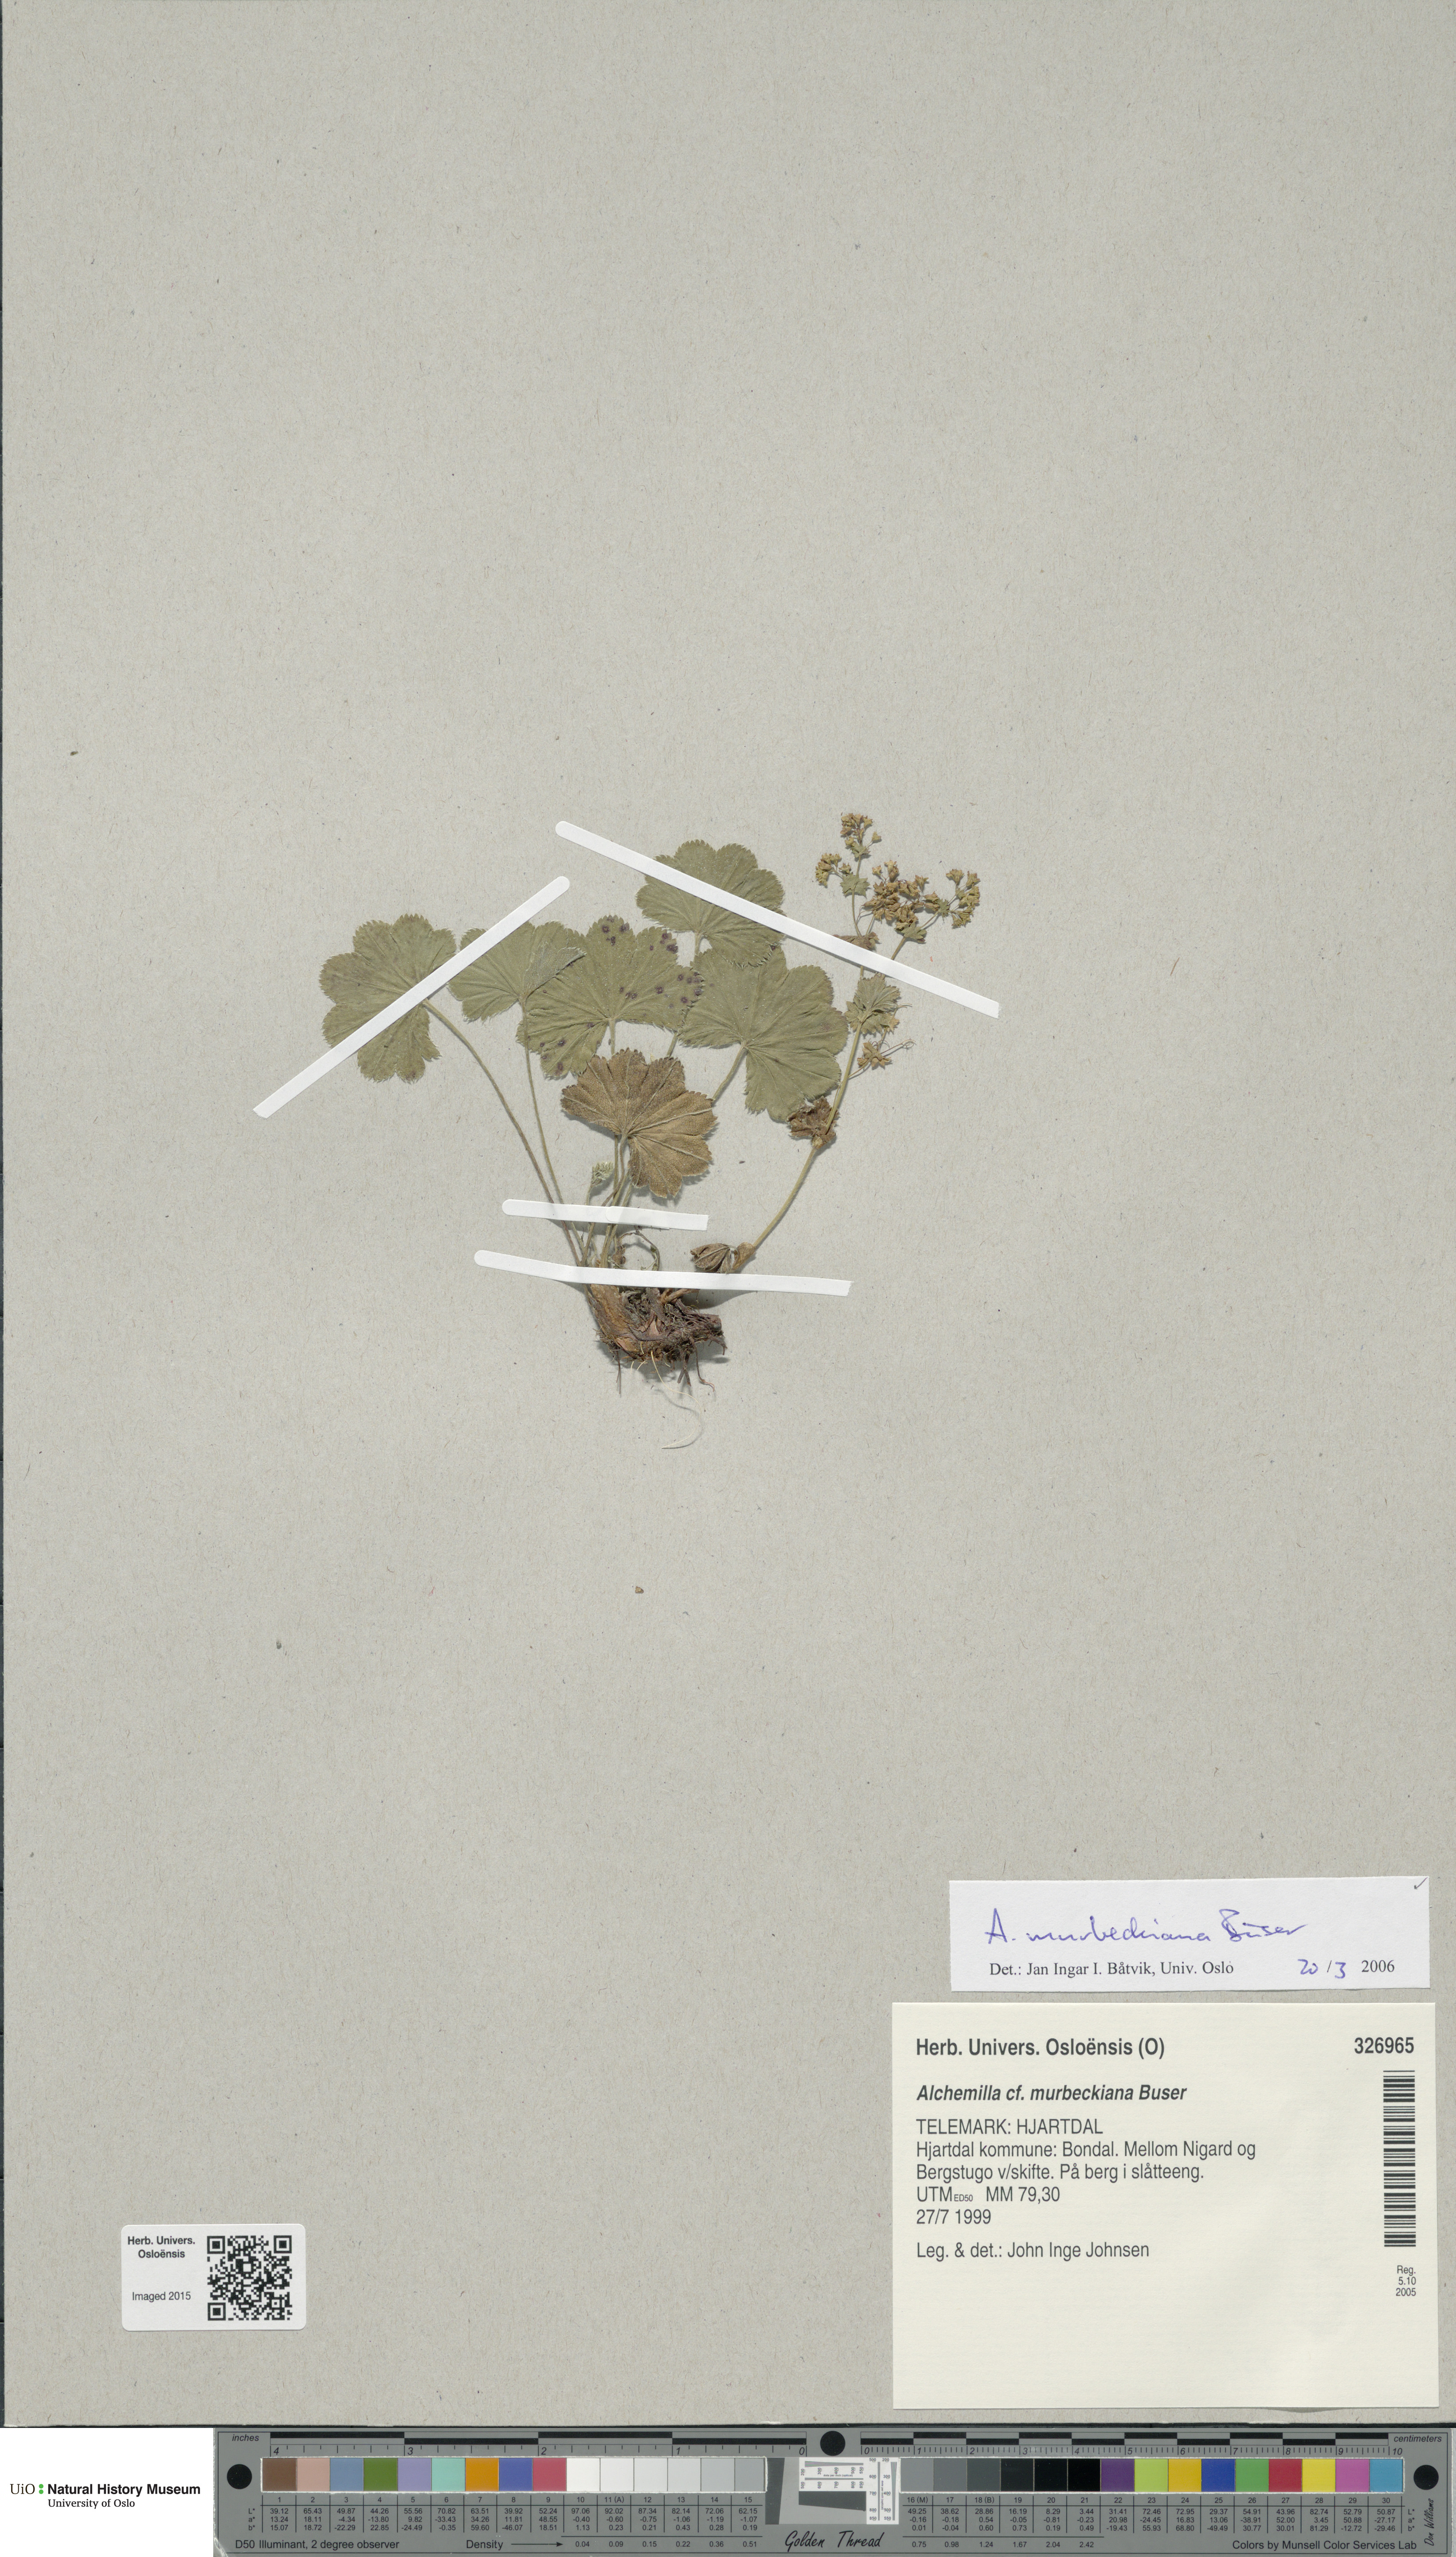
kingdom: Plantae
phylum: Tracheophyta
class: Magnoliopsida
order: Rosales
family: Rosaceae
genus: Alchemilla
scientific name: Alchemilla murbeckiana
